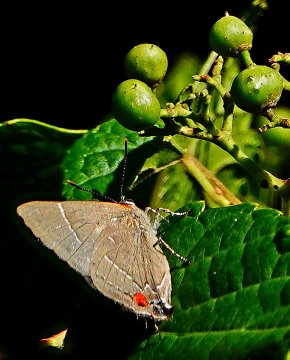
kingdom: Animalia
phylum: Arthropoda
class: Insecta
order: Lepidoptera
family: Lycaenidae
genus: Parrhasius
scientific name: Parrhasius m-album
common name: White-m Hairstreak
